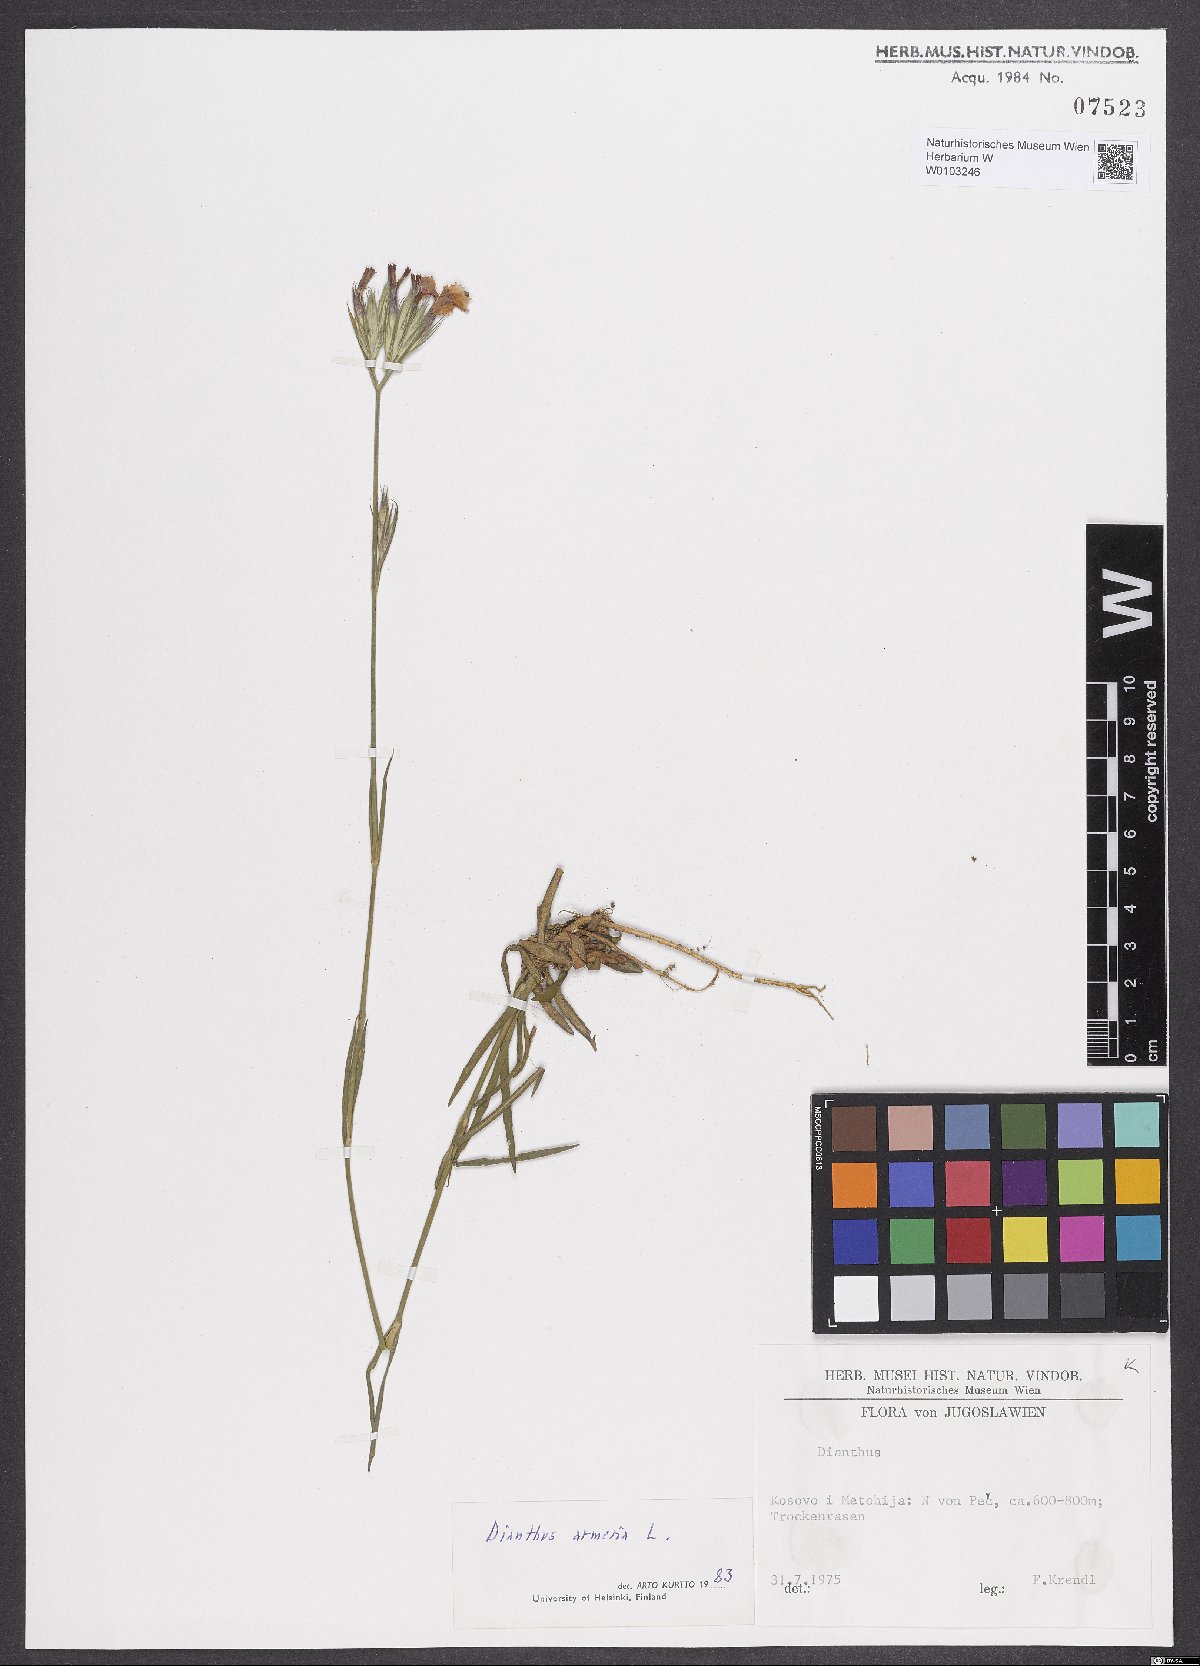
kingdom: Plantae
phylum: Tracheophyta
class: Magnoliopsida
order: Caryophyllales
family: Caryophyllaceae
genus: Dianthus
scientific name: Dianthus armeria
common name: Deptford pink
